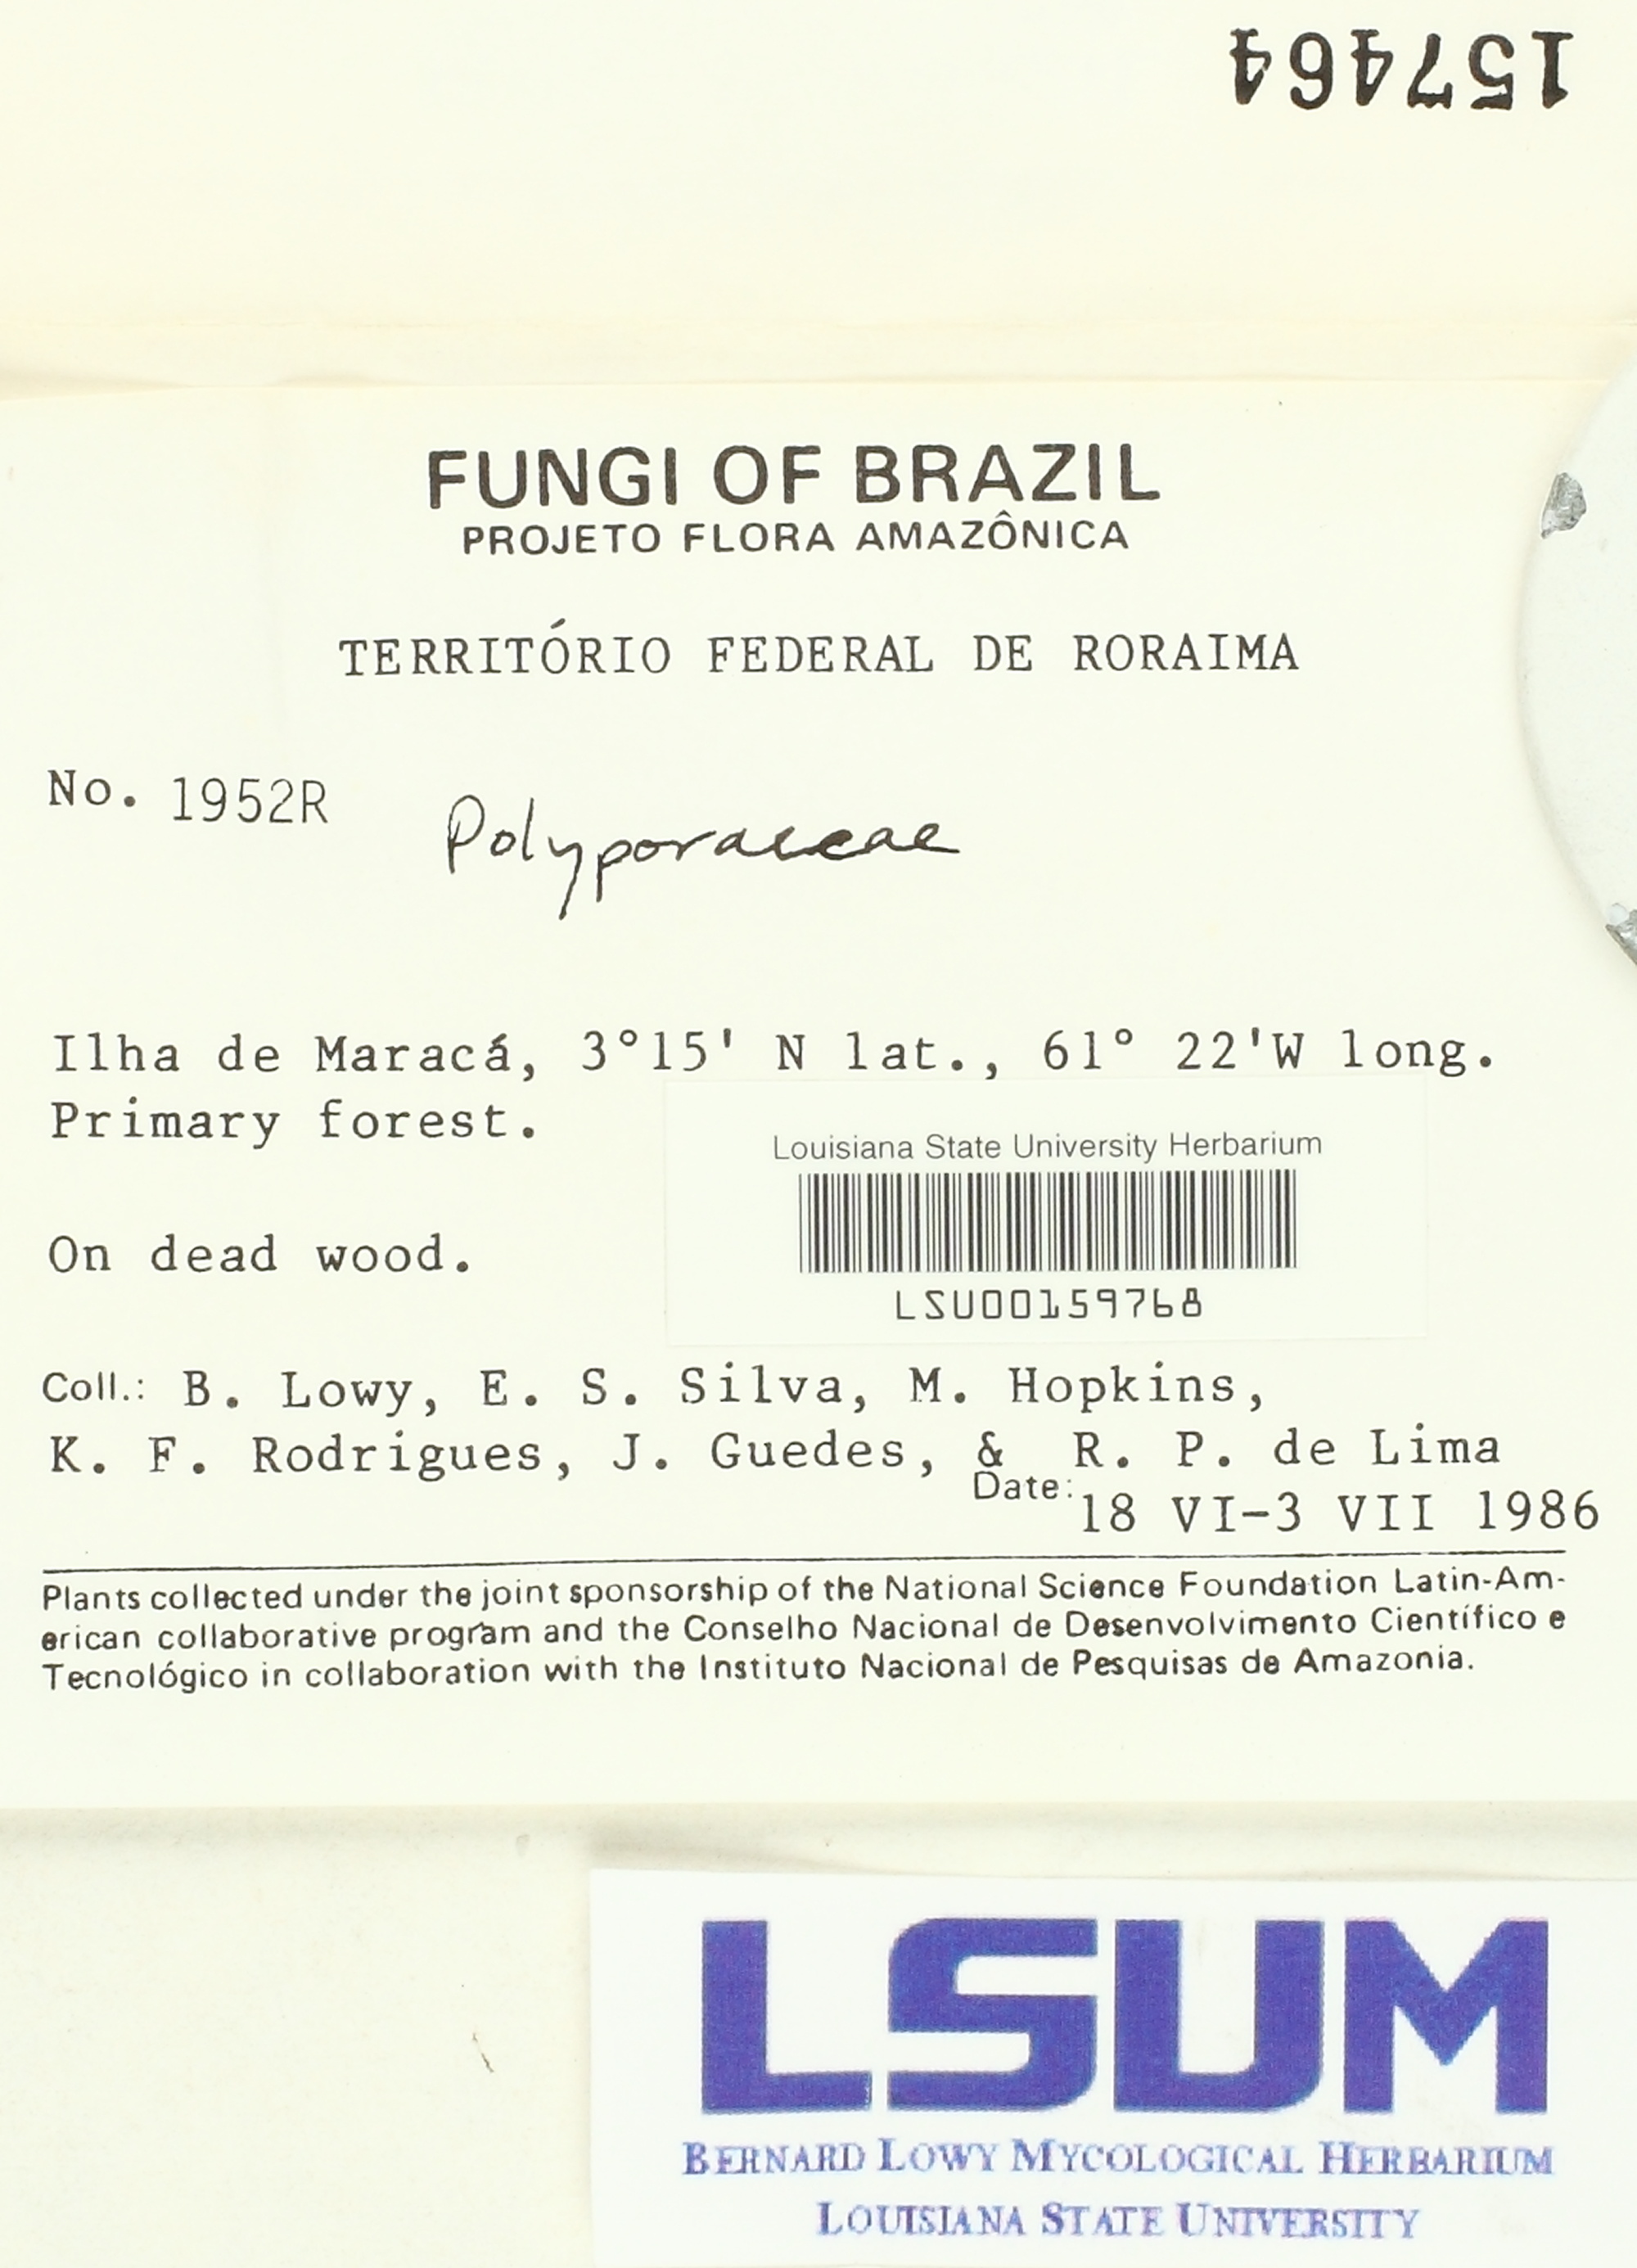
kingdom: Fungi
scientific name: Fungi
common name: Fungi
